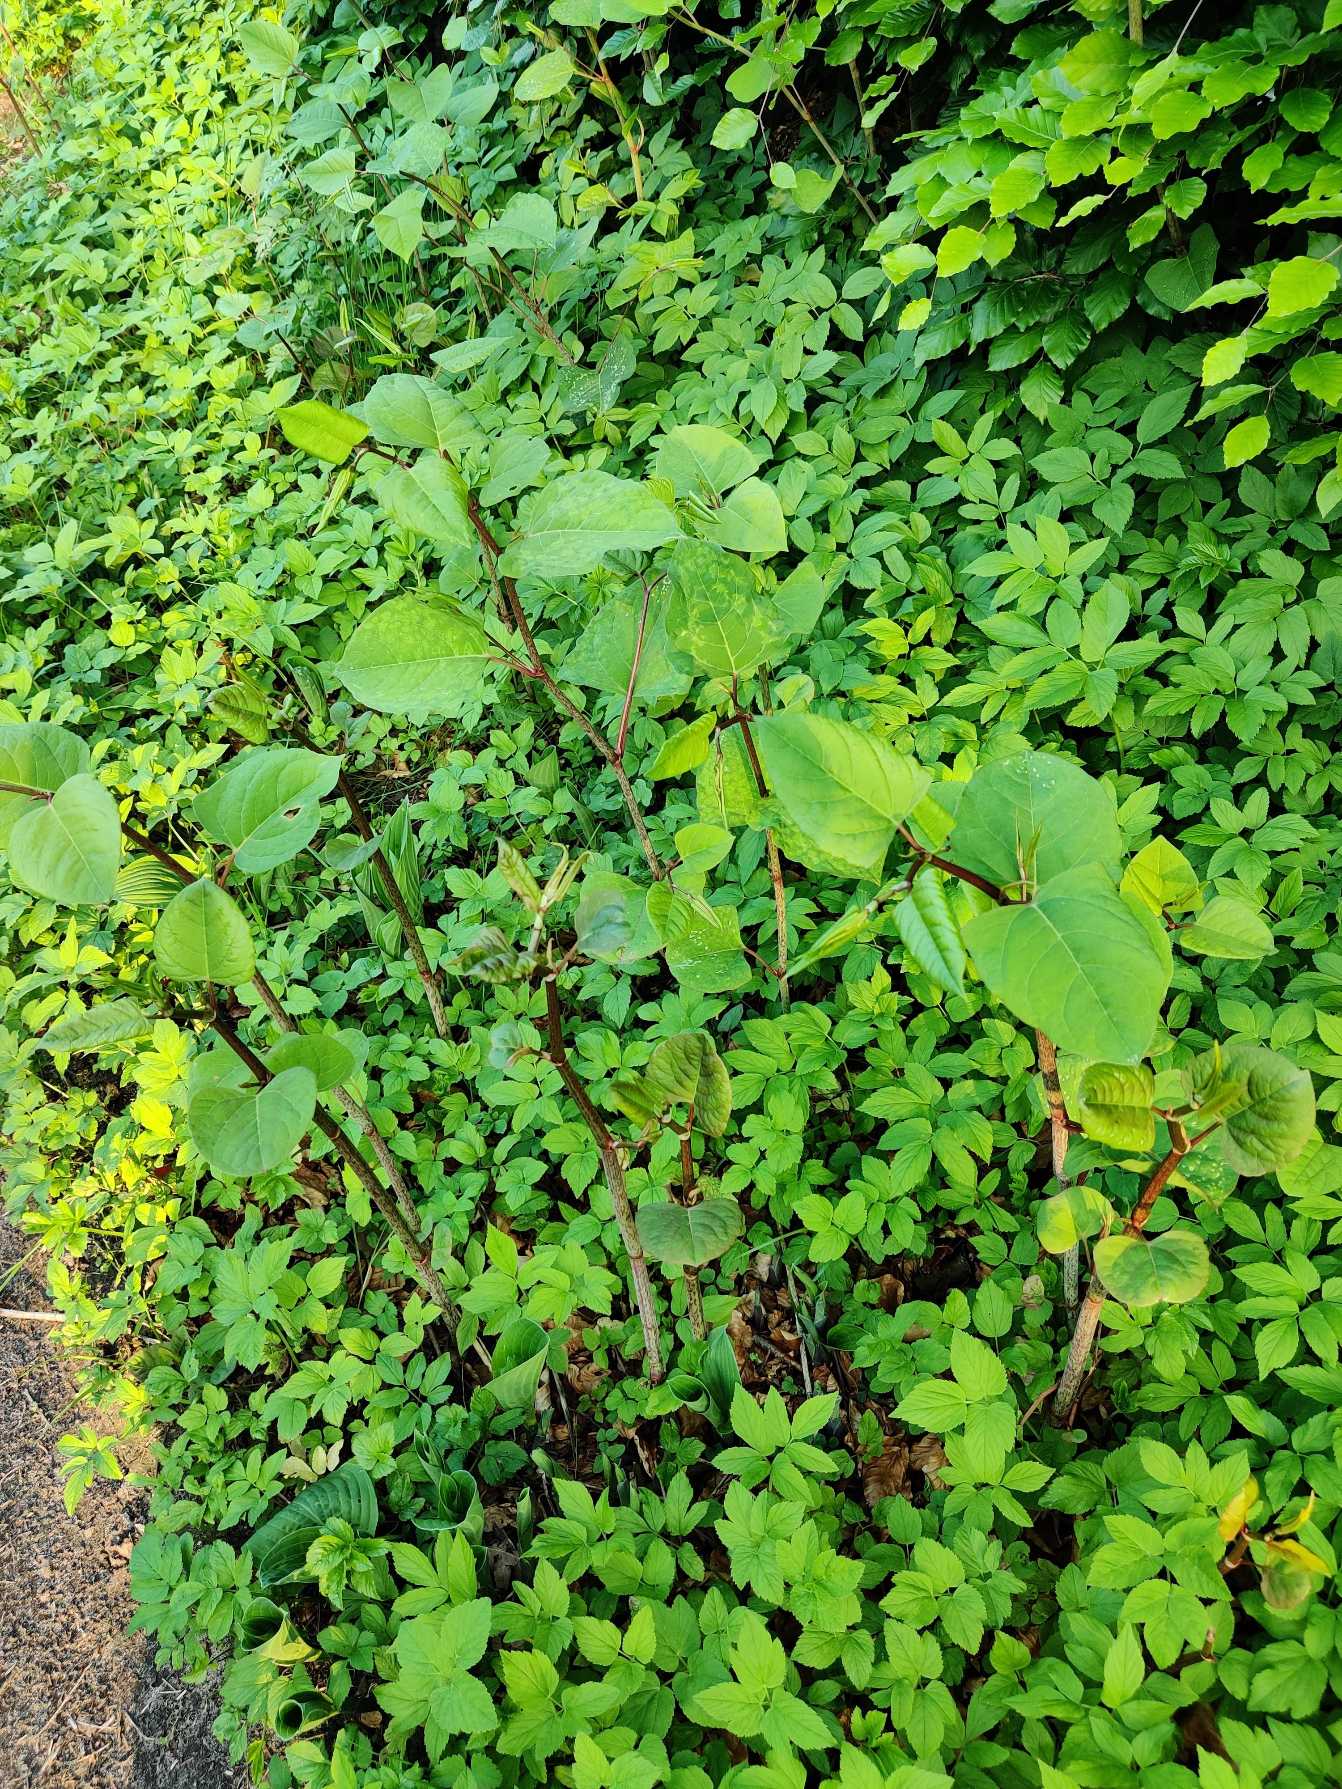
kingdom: Plantae
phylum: Tracheophyta
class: Magnoliopsida
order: Caryophyllales
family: Polygonaceae
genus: Reynoutria
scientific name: Reynoutria japonica
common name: Japan-pileurt
